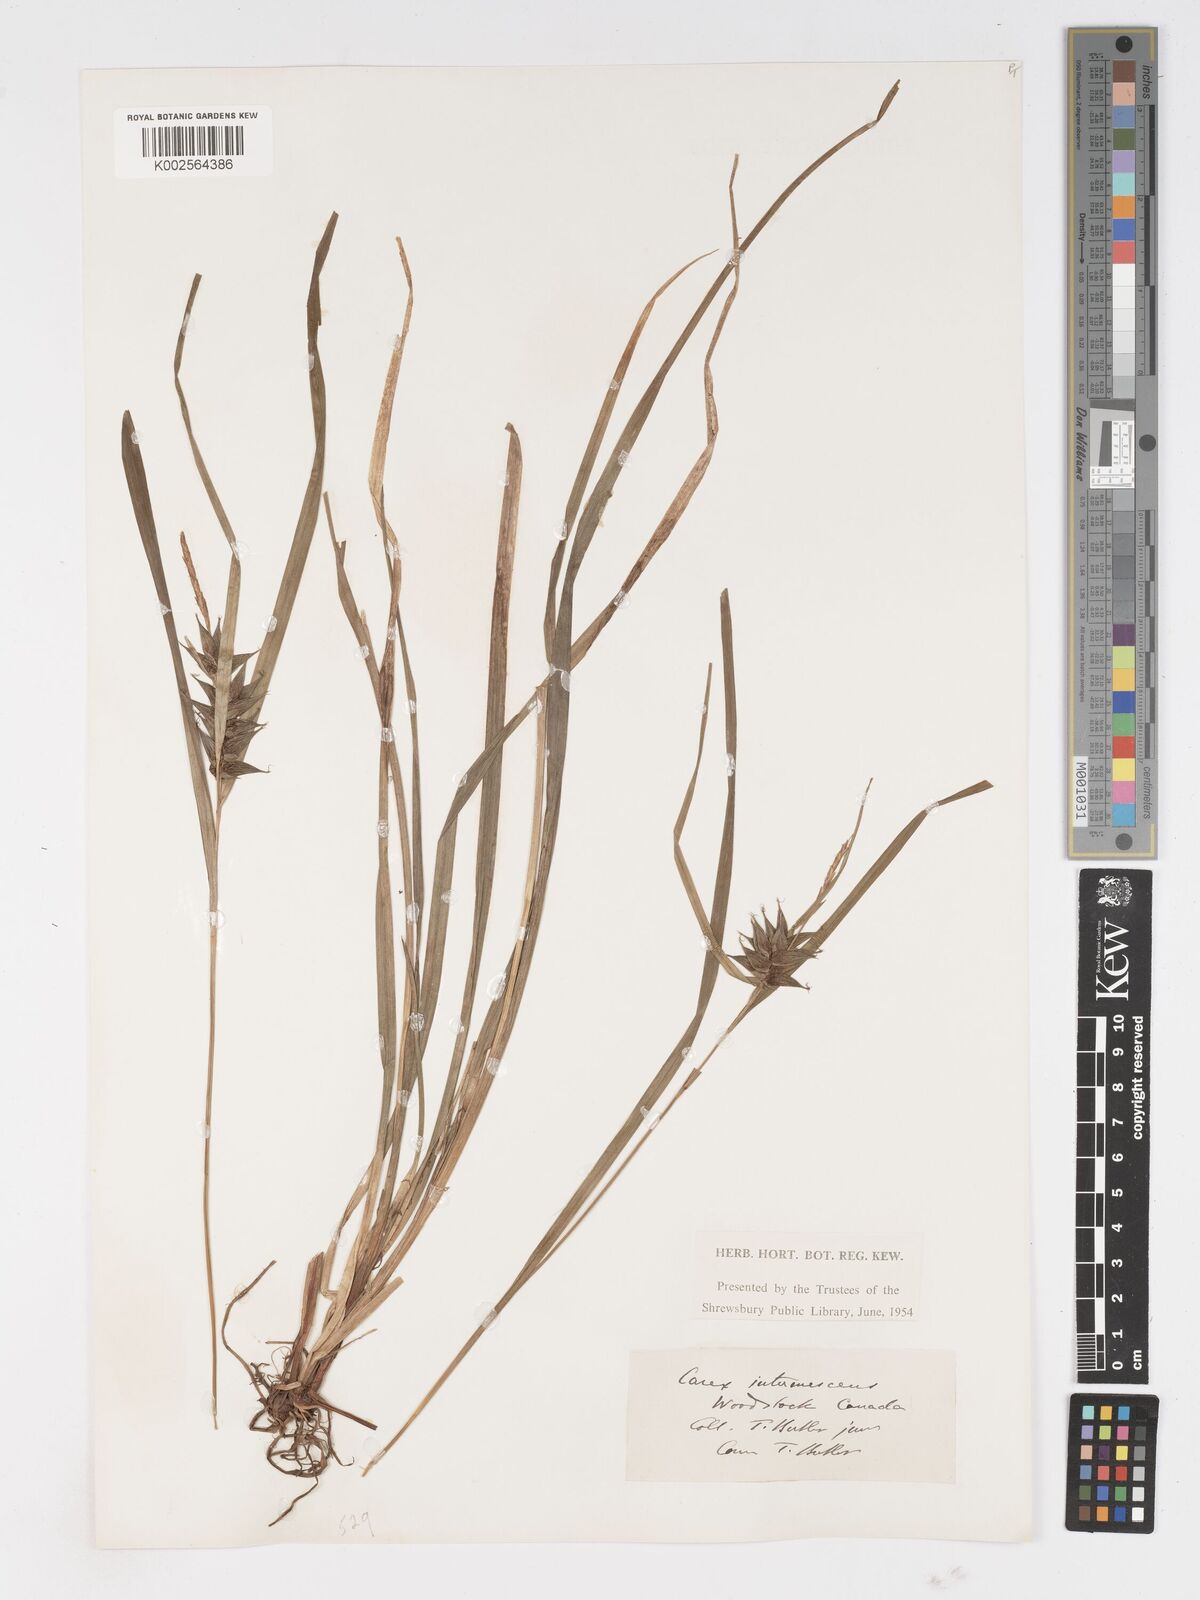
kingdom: Plantae
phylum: Tracheophyta
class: Liliopsida
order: Poales
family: Cyperaceae
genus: Carex
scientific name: Carex intumescens
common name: Greater bladder sedge
